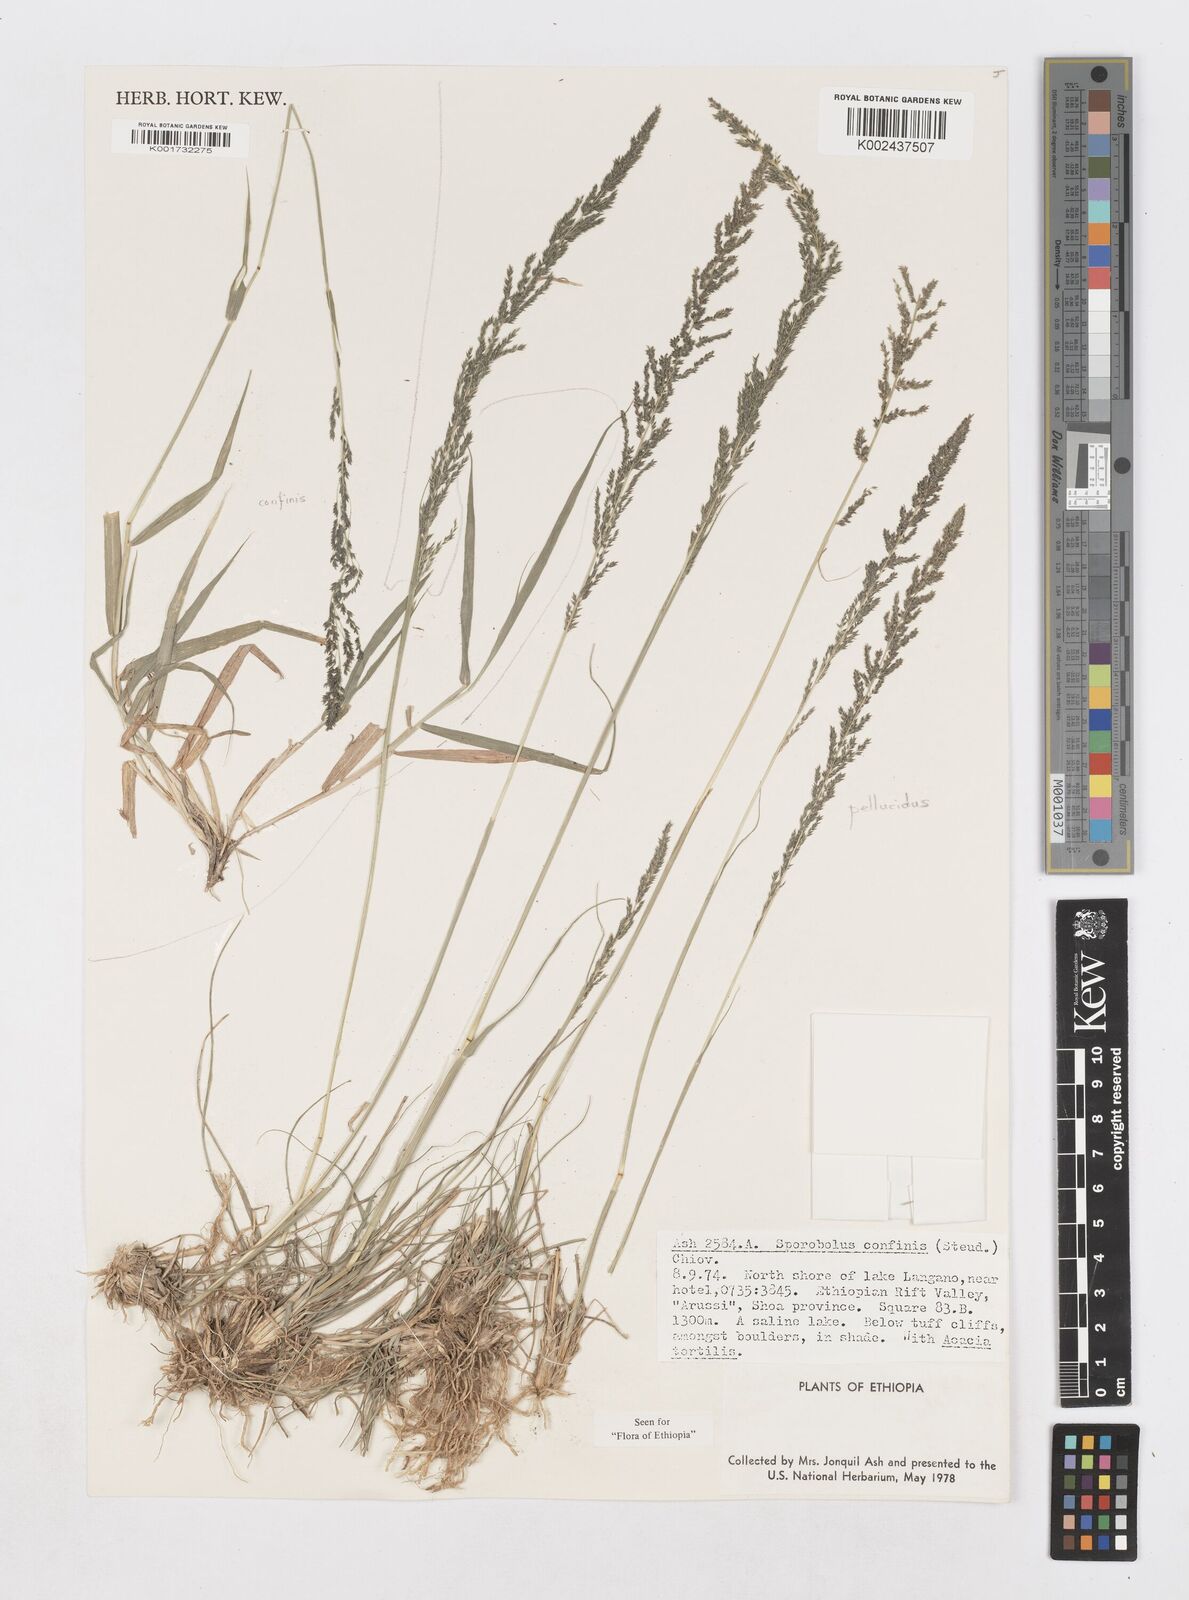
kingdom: Plantae
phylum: Tracheophyta
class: Liliopsida
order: Poales
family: Poaceae
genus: Sporobolus
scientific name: Sporobolus confinis
